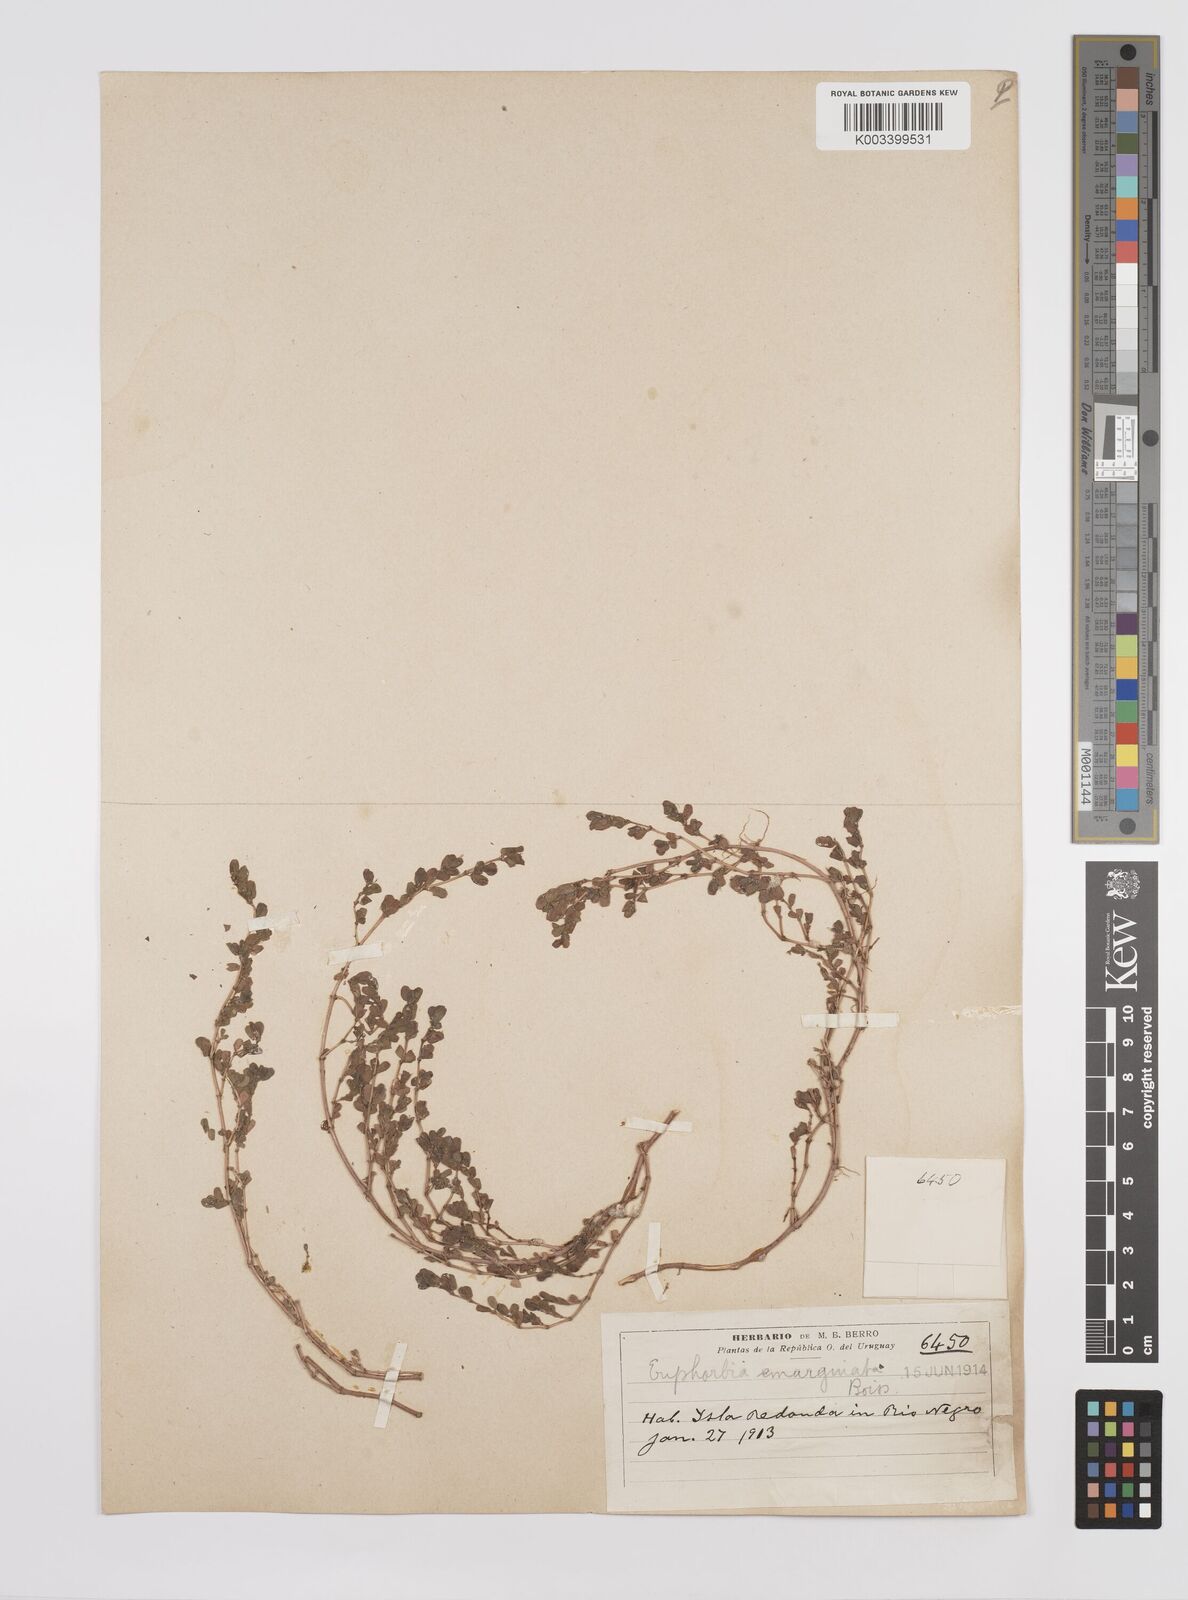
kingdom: Plantae
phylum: Tracheophyta
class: Magnoliopsida
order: Malpighiales
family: Euphorbiaceae
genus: Euphorbia
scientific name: Euphorbia
